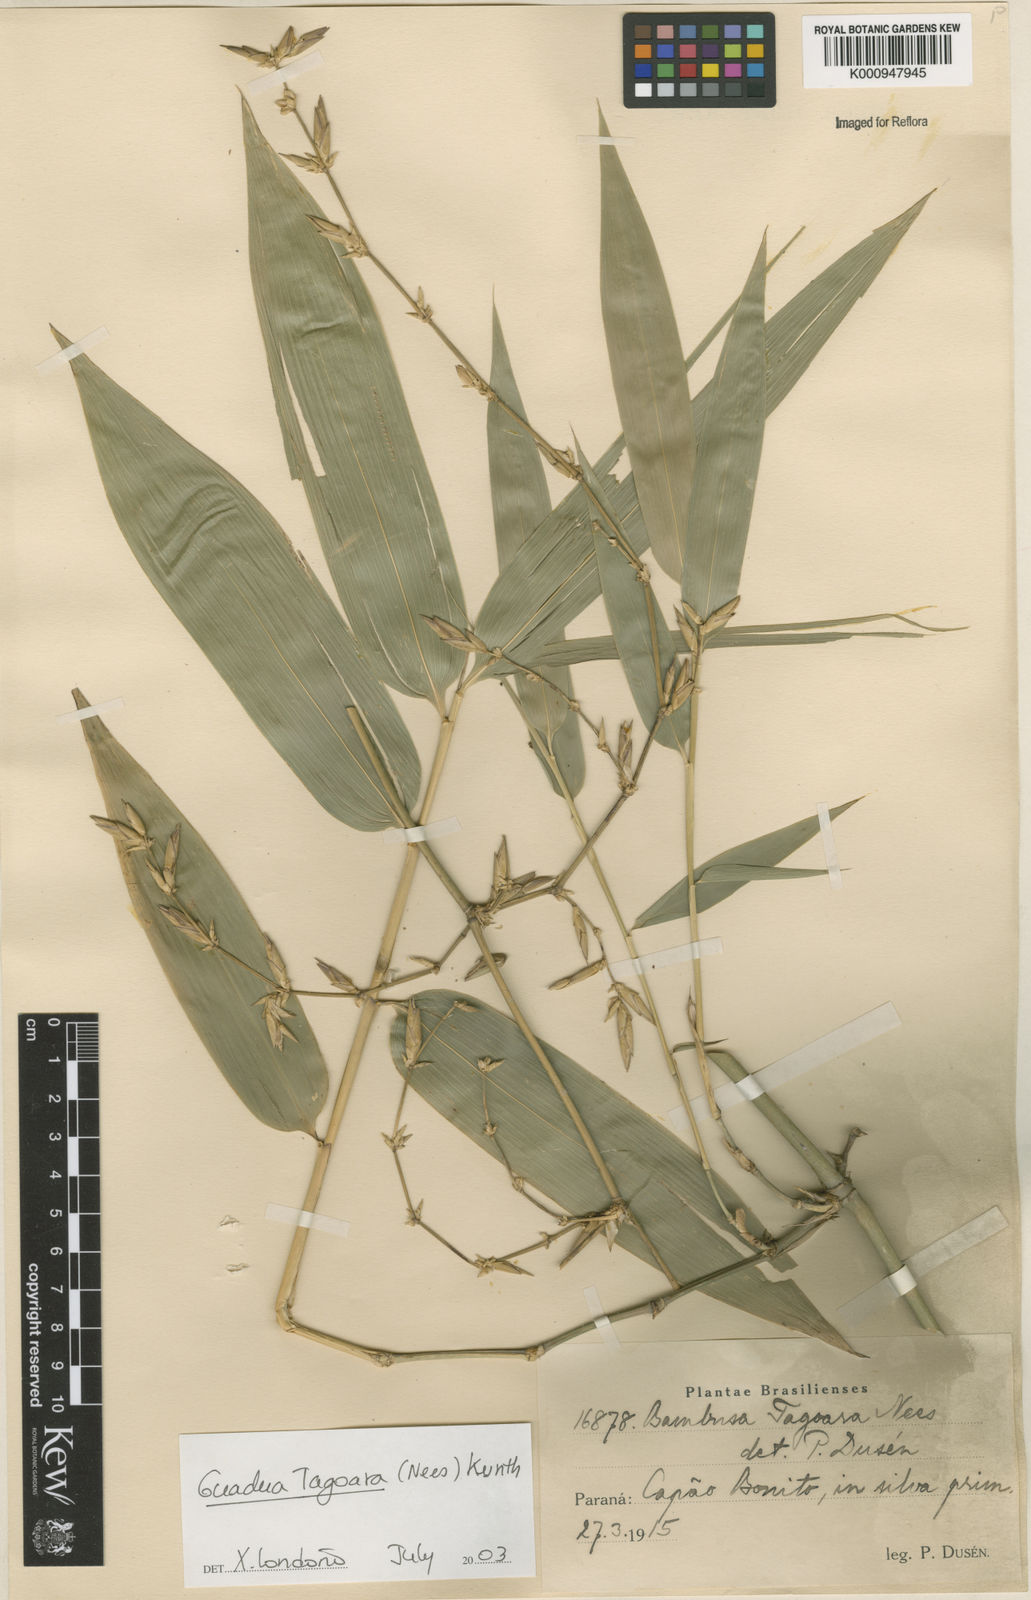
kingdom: Plantae
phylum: Tracheophyta
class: Liliopsida
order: Poales
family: Poaceae
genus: Guadua
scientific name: Guadua tagoara
